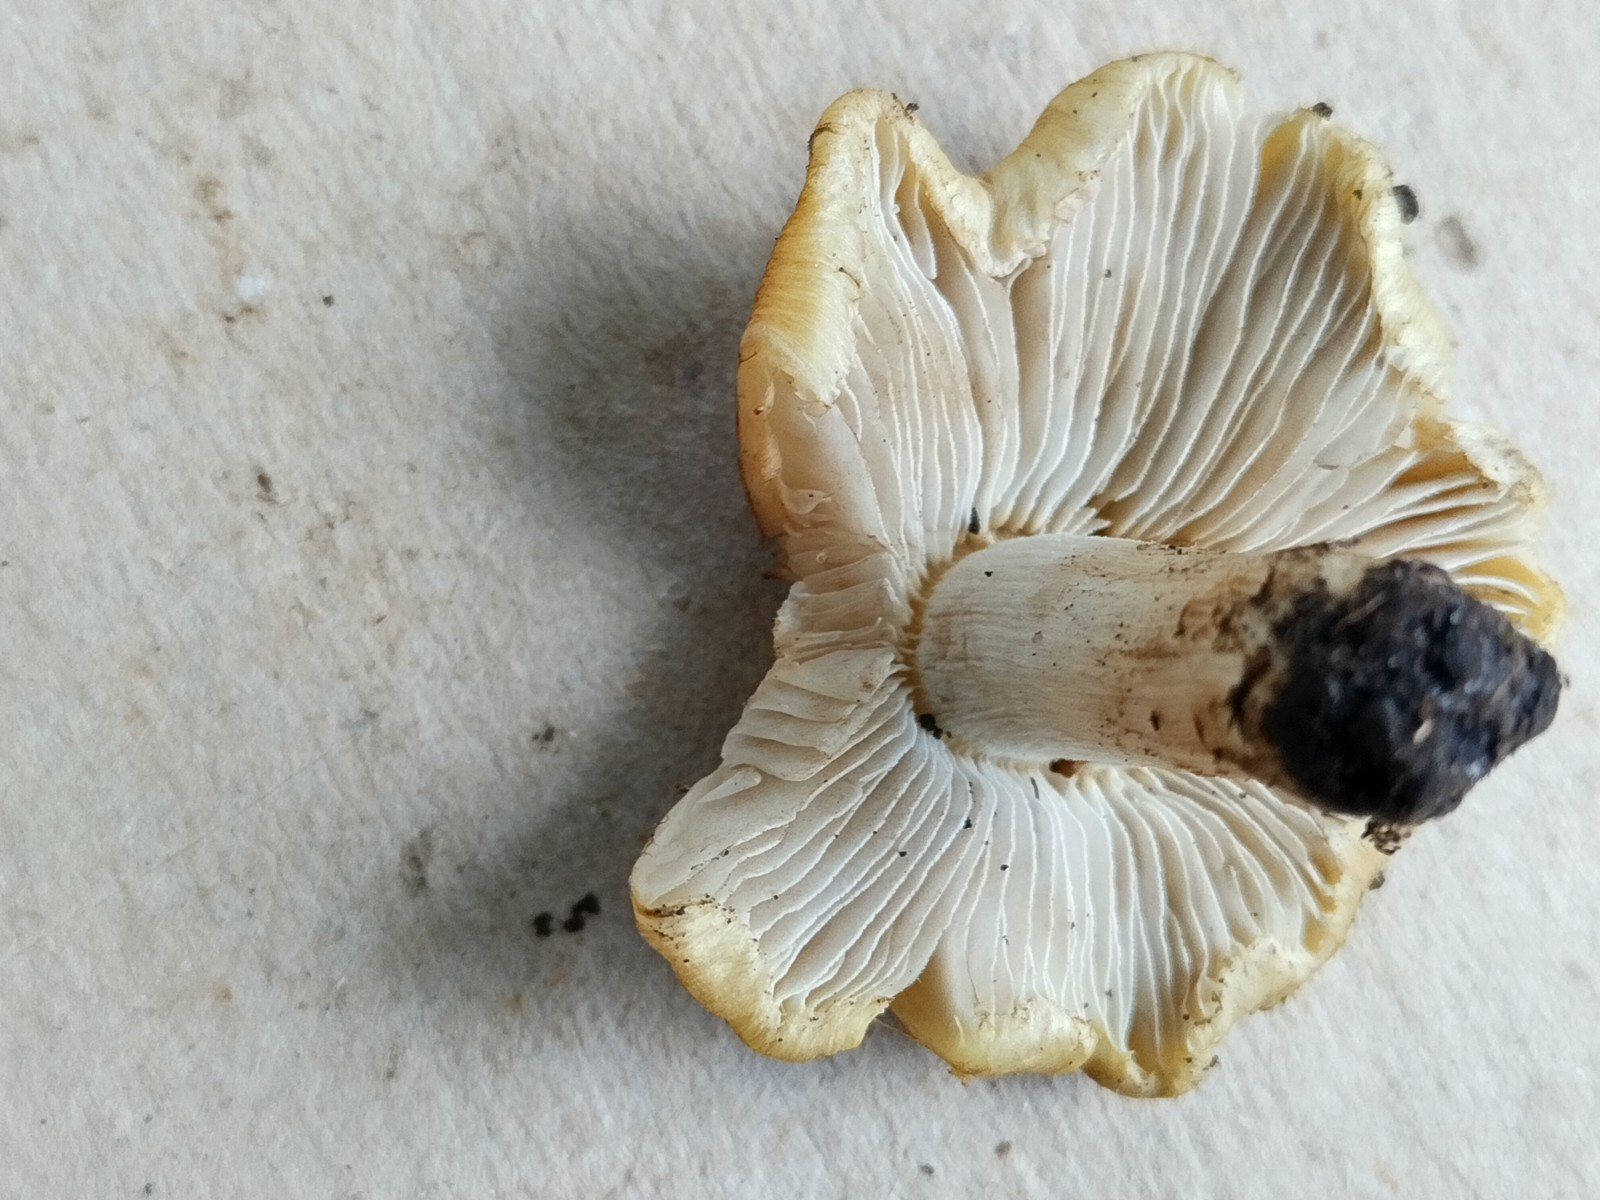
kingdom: Fungi
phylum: Basidiomycota
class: Agaricomycetes
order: Agaricales
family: Inocybaceae
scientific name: Inocybaceae
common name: trævlhatfamilien
